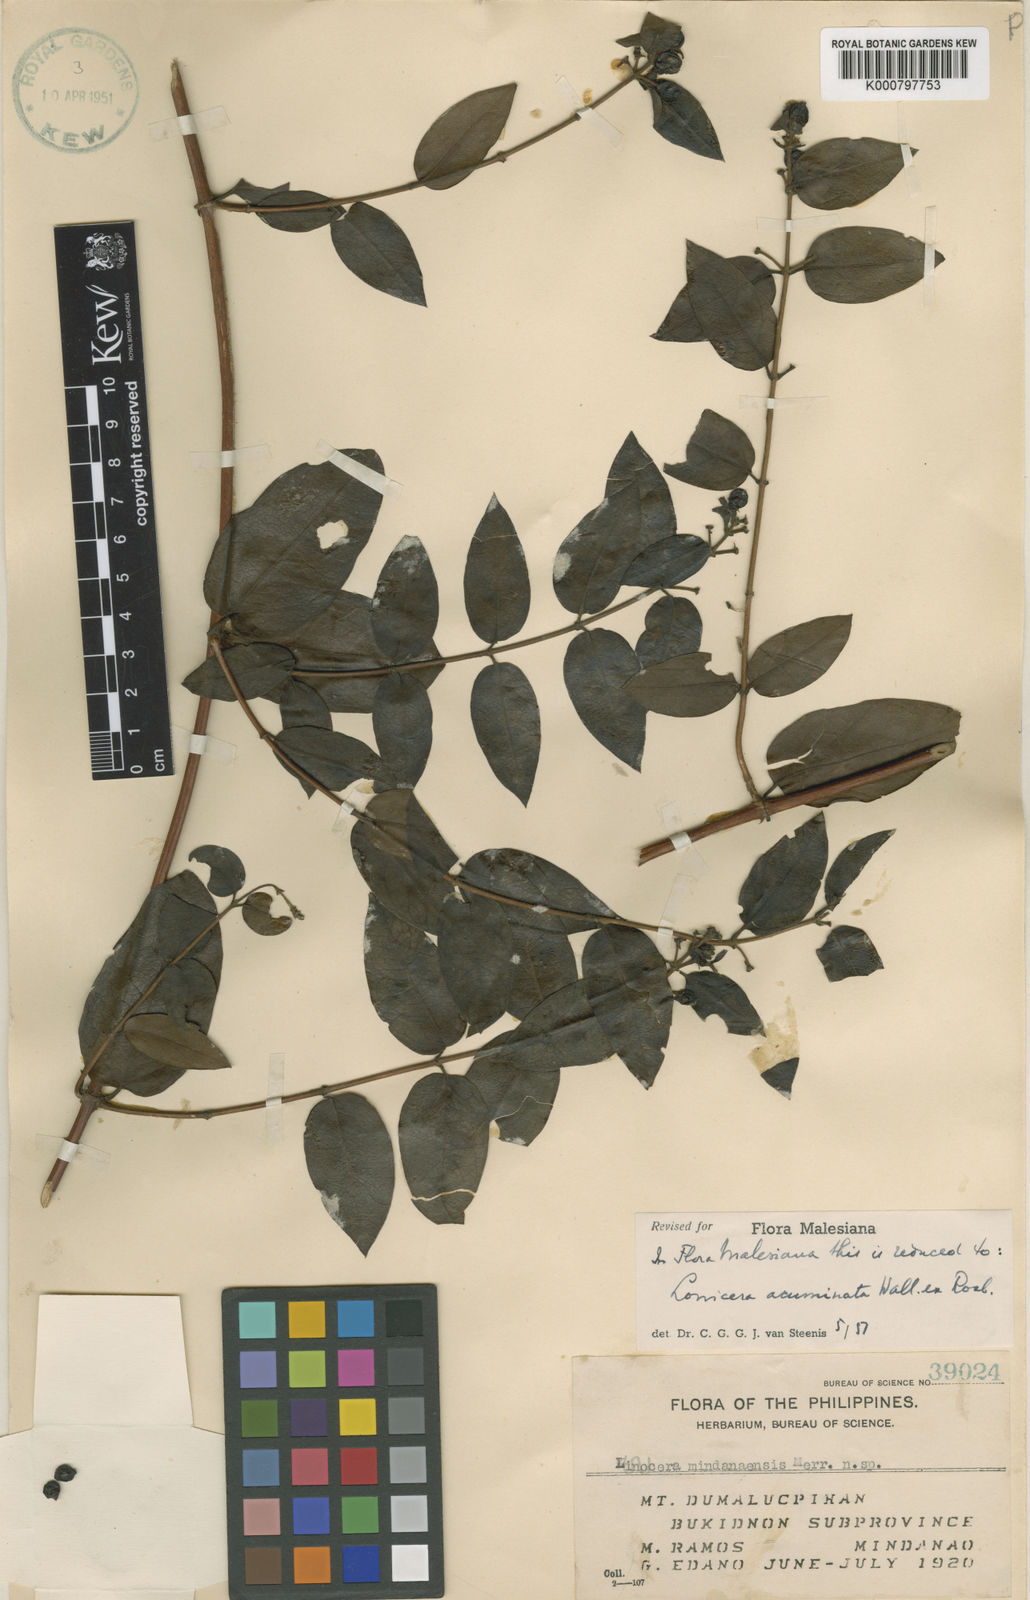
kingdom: Plantae
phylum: Tracheophyta
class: Magnoliopsida
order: Dipsacales
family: Caprifoliaceae
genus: Lonicera
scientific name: Lonicera acuminata
